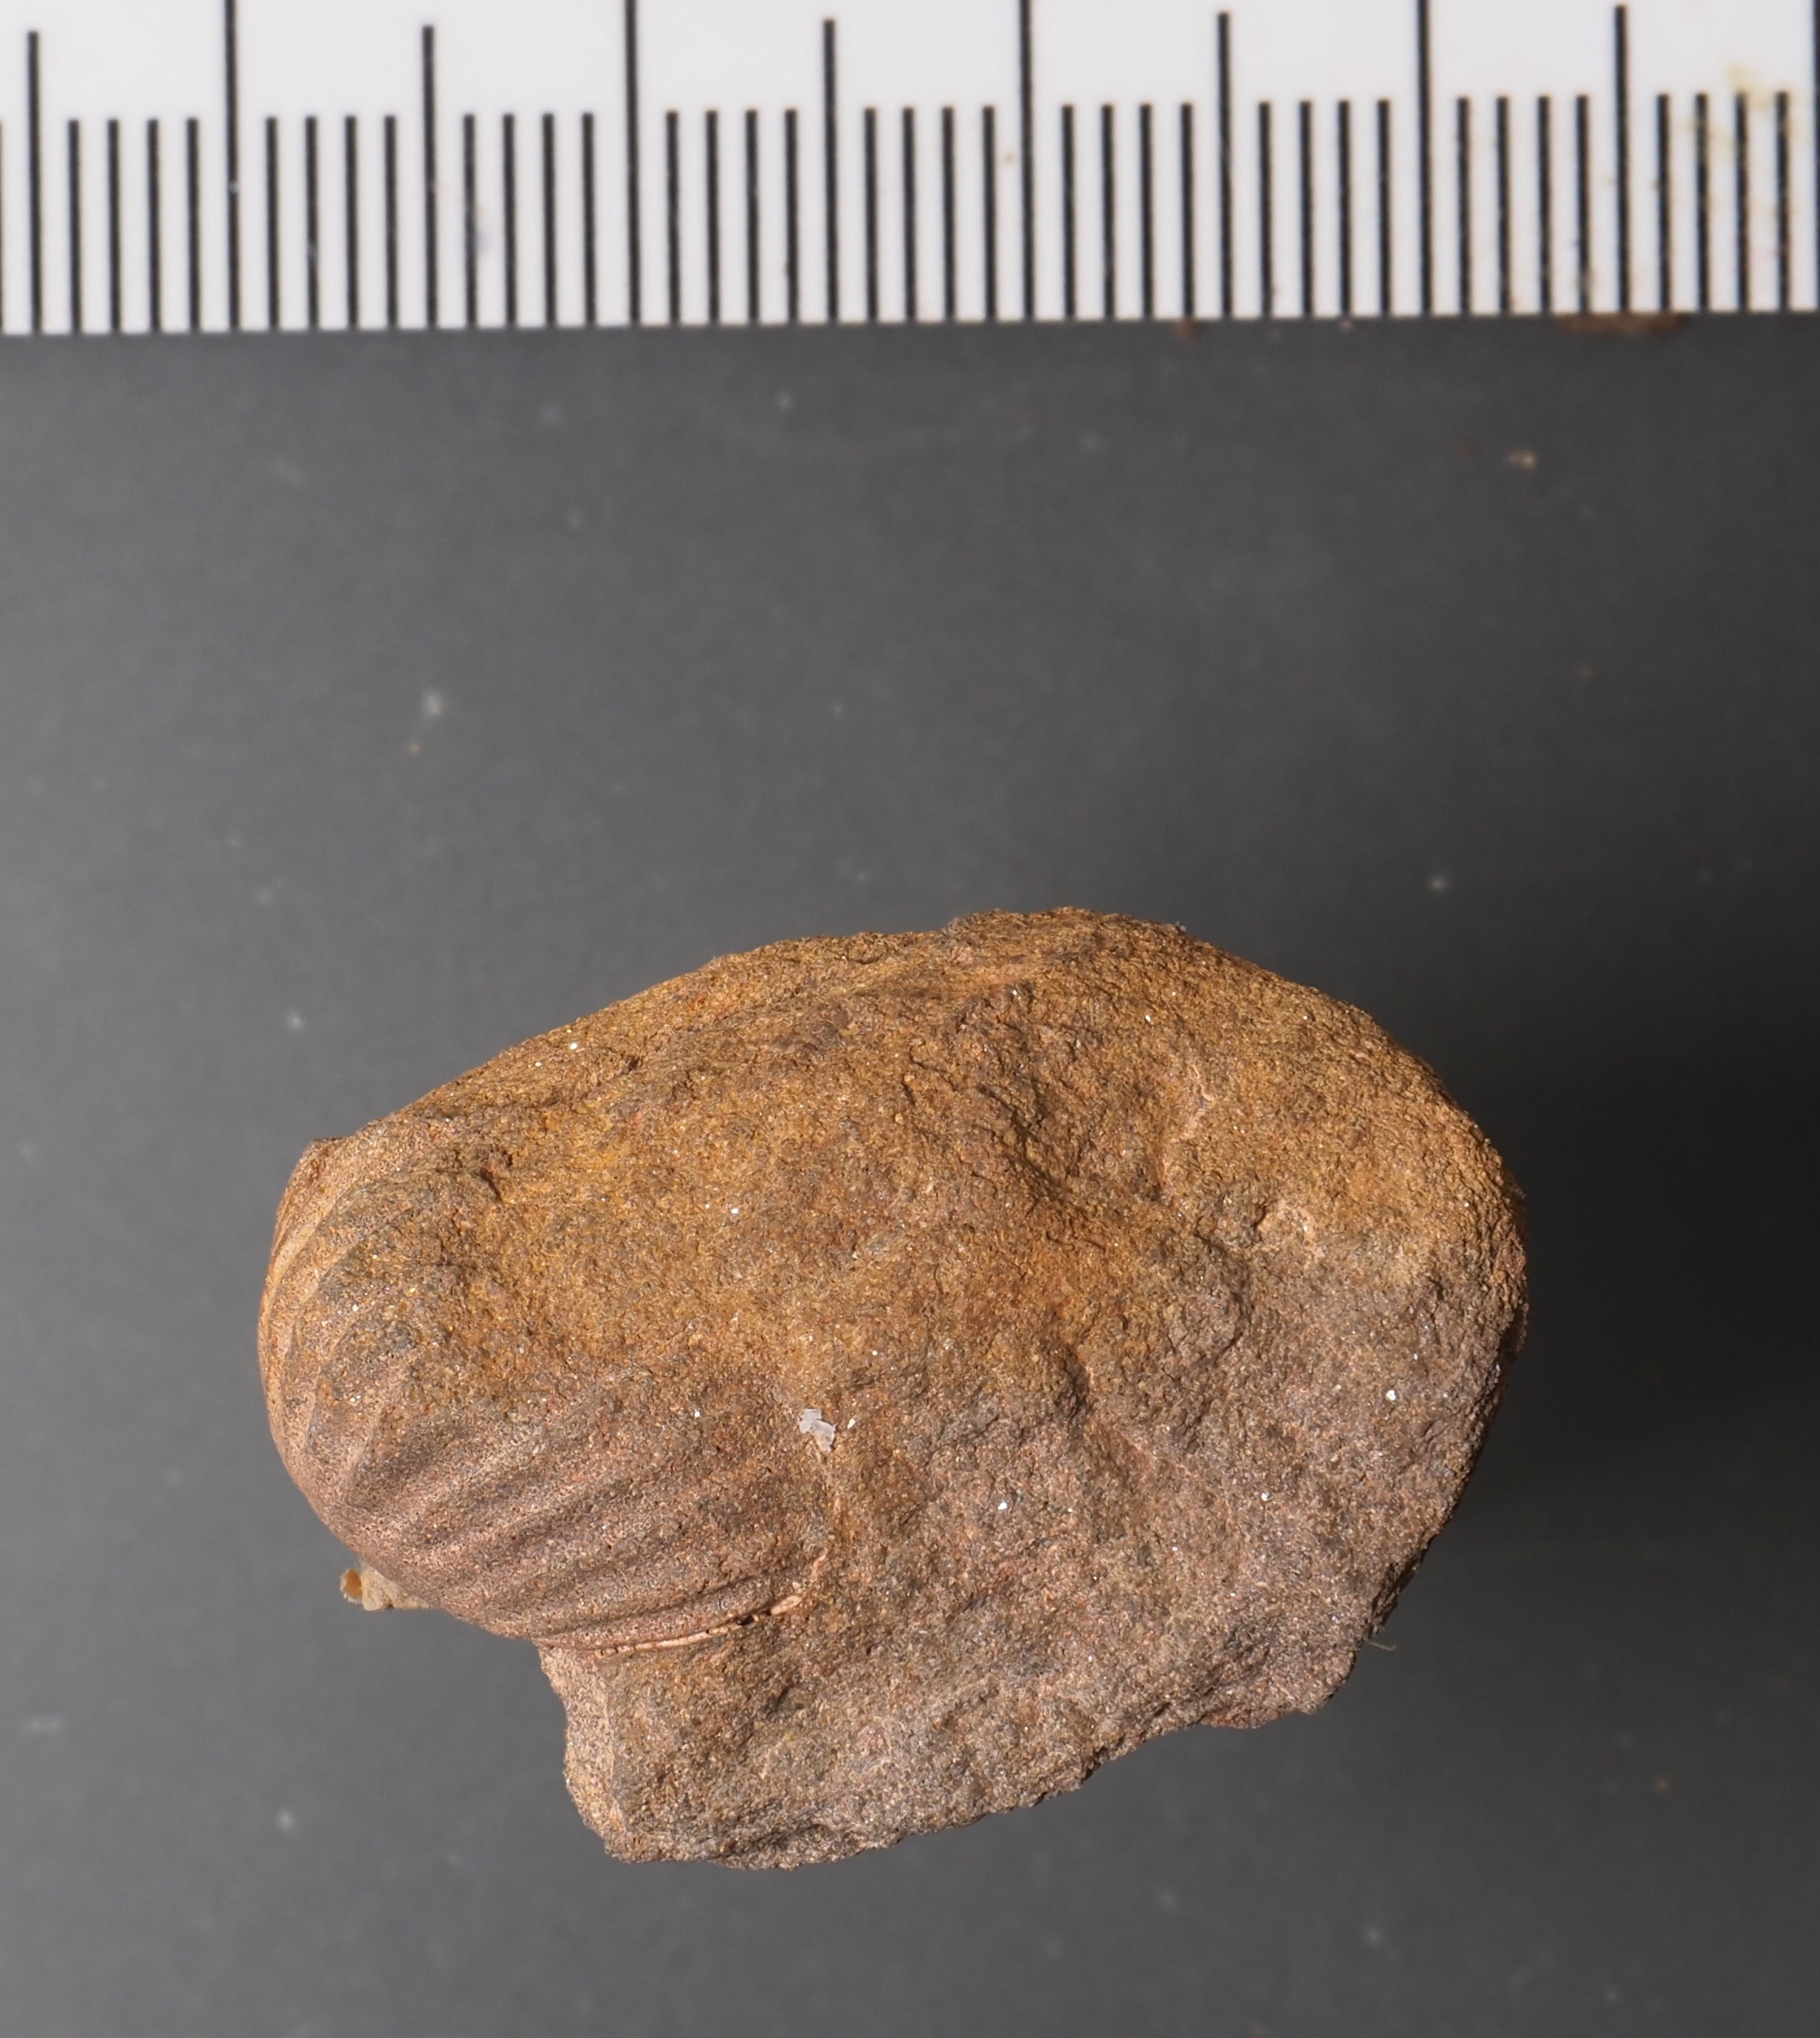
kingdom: Animalia
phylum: Brachiopoda
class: Rhynchonellata
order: Rhynchonellida
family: Trigonirhynchiidae
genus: Oligoptycherhynchus
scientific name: Oligoptycherhynchus
